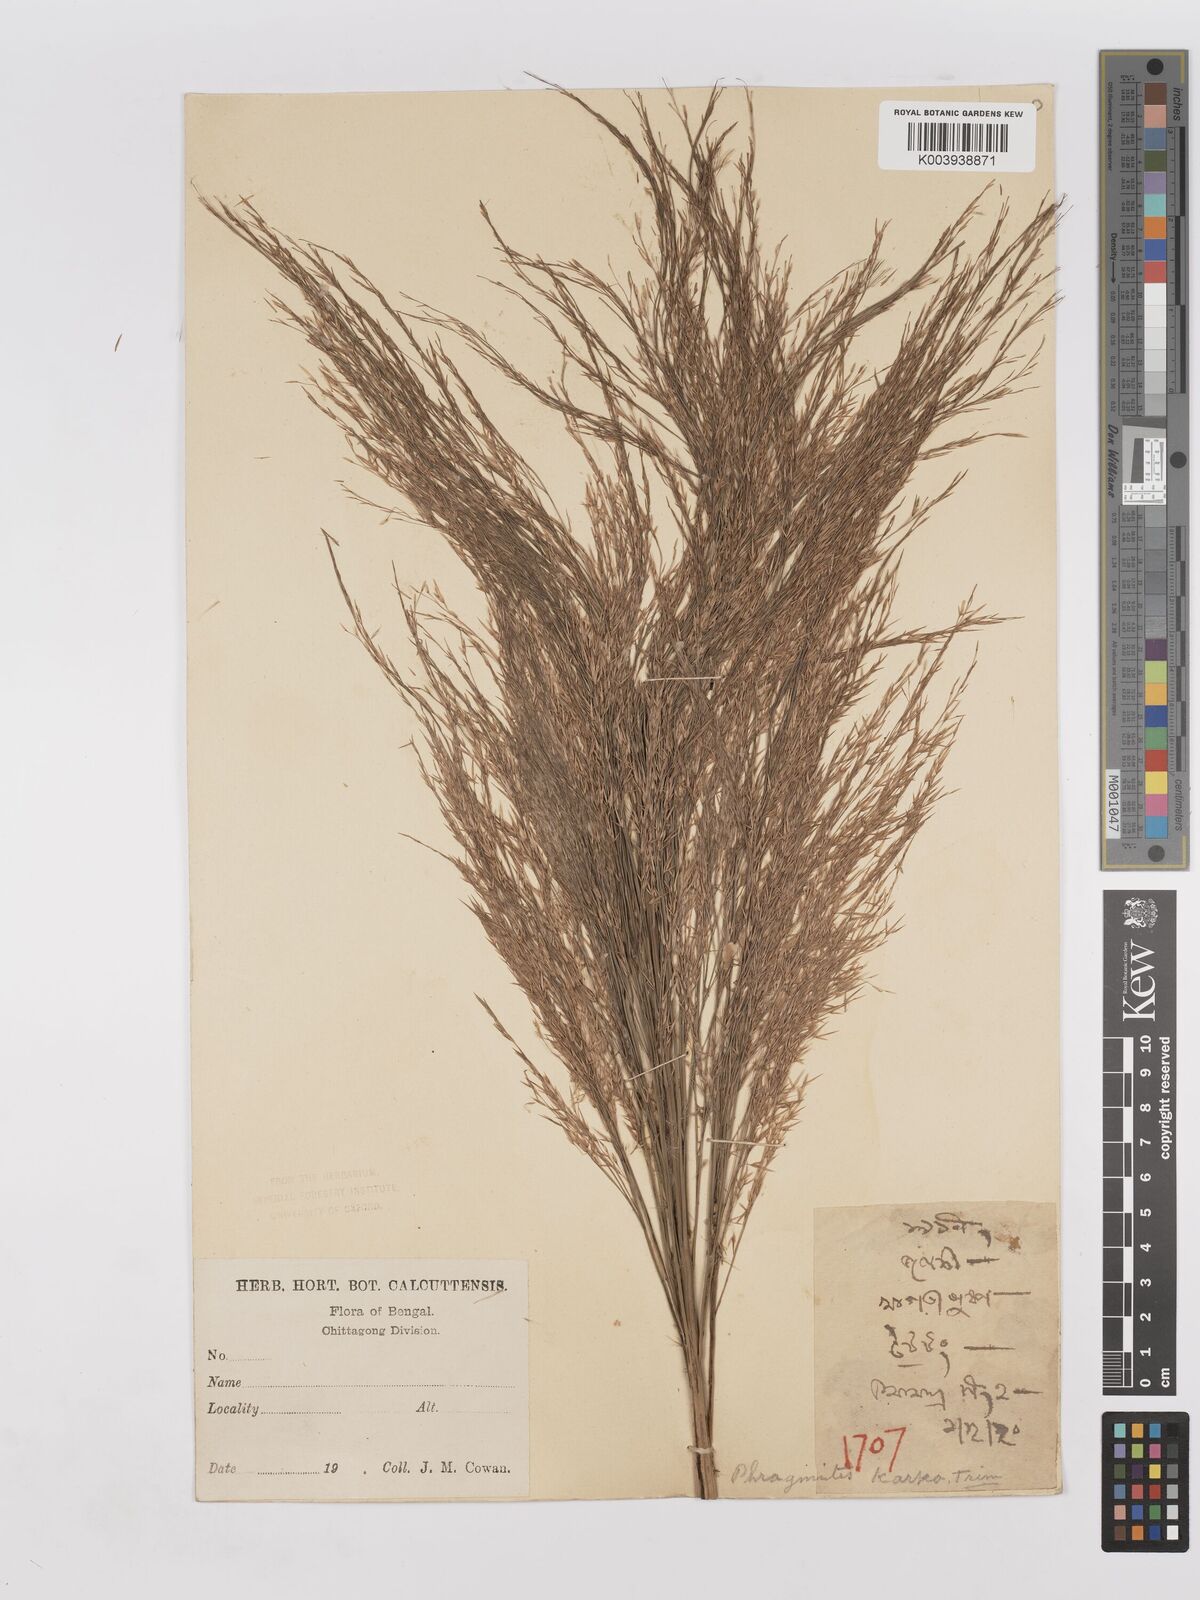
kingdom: Plantae
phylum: Tracheophyta
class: Liliopsida
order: Poales
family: Poaceae
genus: Phragmites
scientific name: Phragmites karka
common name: Tropical reed
